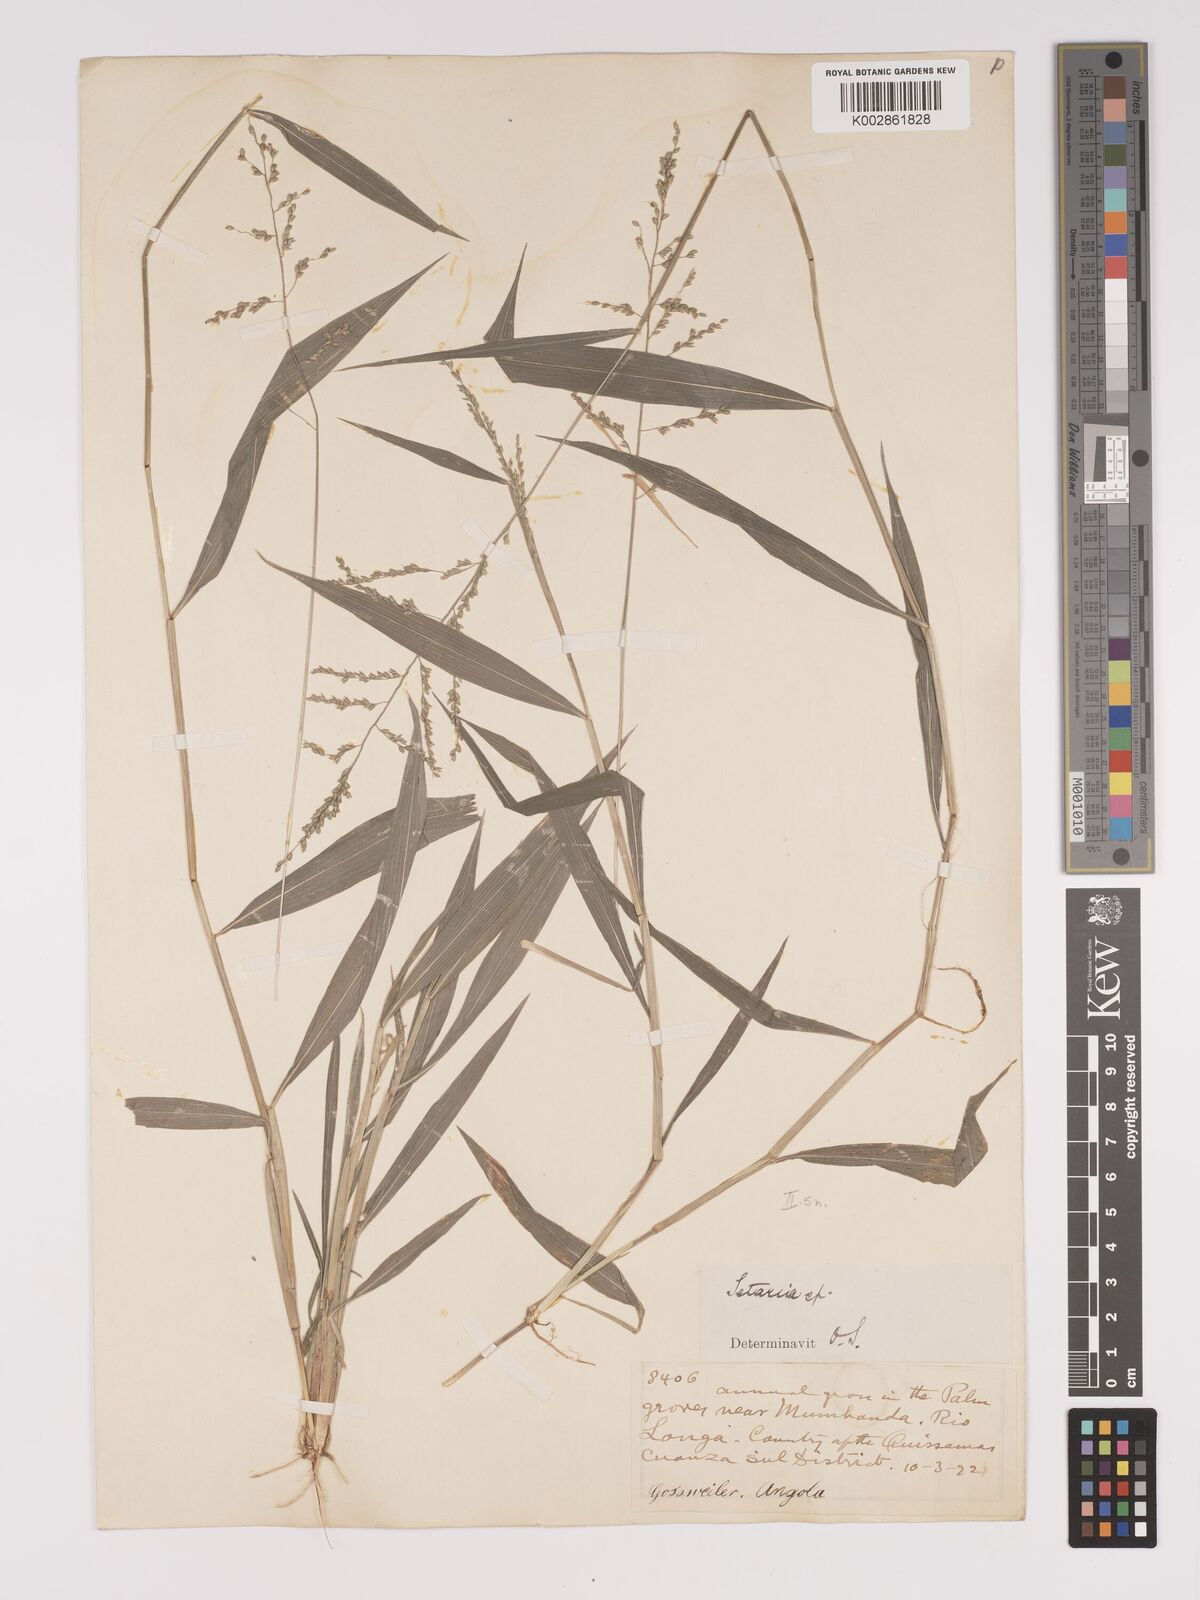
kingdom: Plantae
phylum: Tracheophyta
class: Liliopsida
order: Poales
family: Poaceae
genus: Setaria
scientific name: Setaria barbata
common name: East indian bristlegrass
